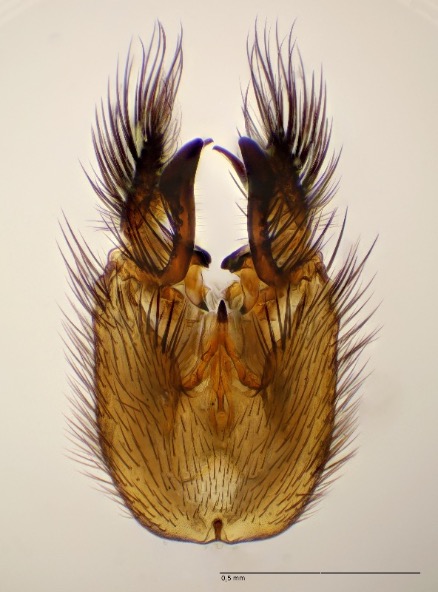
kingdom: Animalia
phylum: Arthropoda
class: Insecta
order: Diptera
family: Mycetophilidae
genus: Rymosia
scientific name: Rymosia domestica
